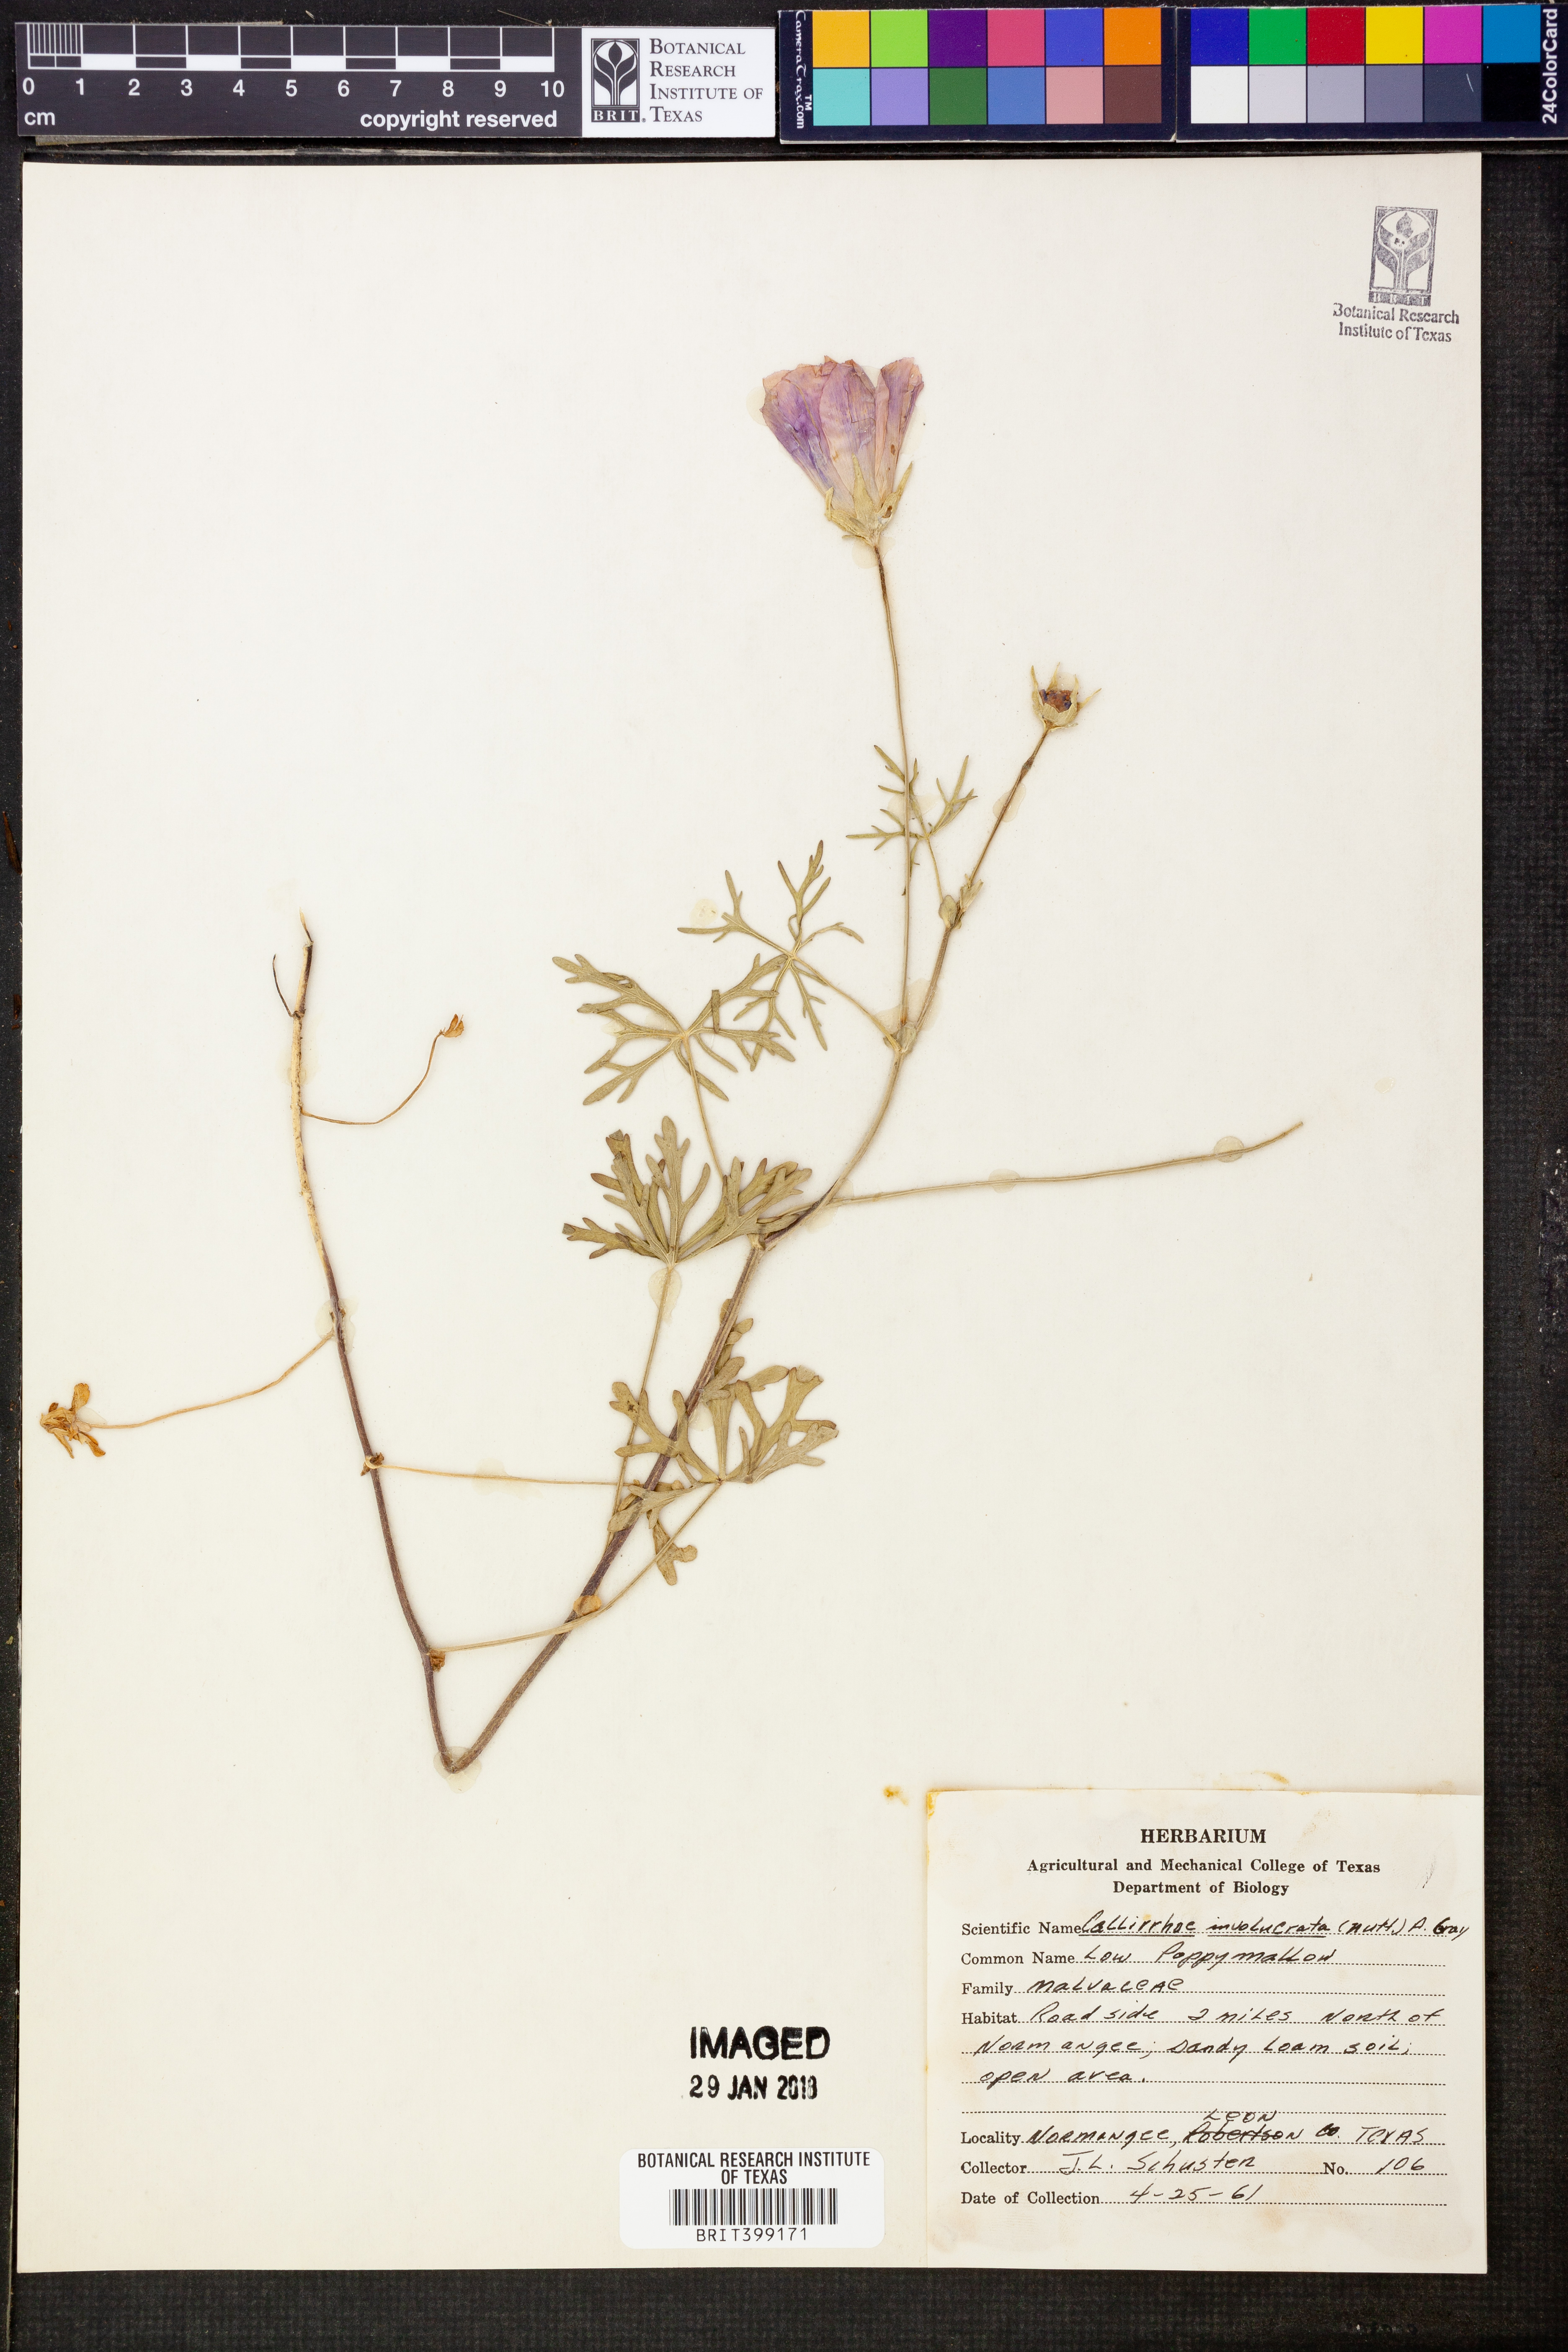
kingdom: Plantae
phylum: Tracheophyta
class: Magnoliopsida
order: Malvales
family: Malvaceae
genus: Callirhoe
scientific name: Callirhoe involucrata
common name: Purple poppy-mallow
